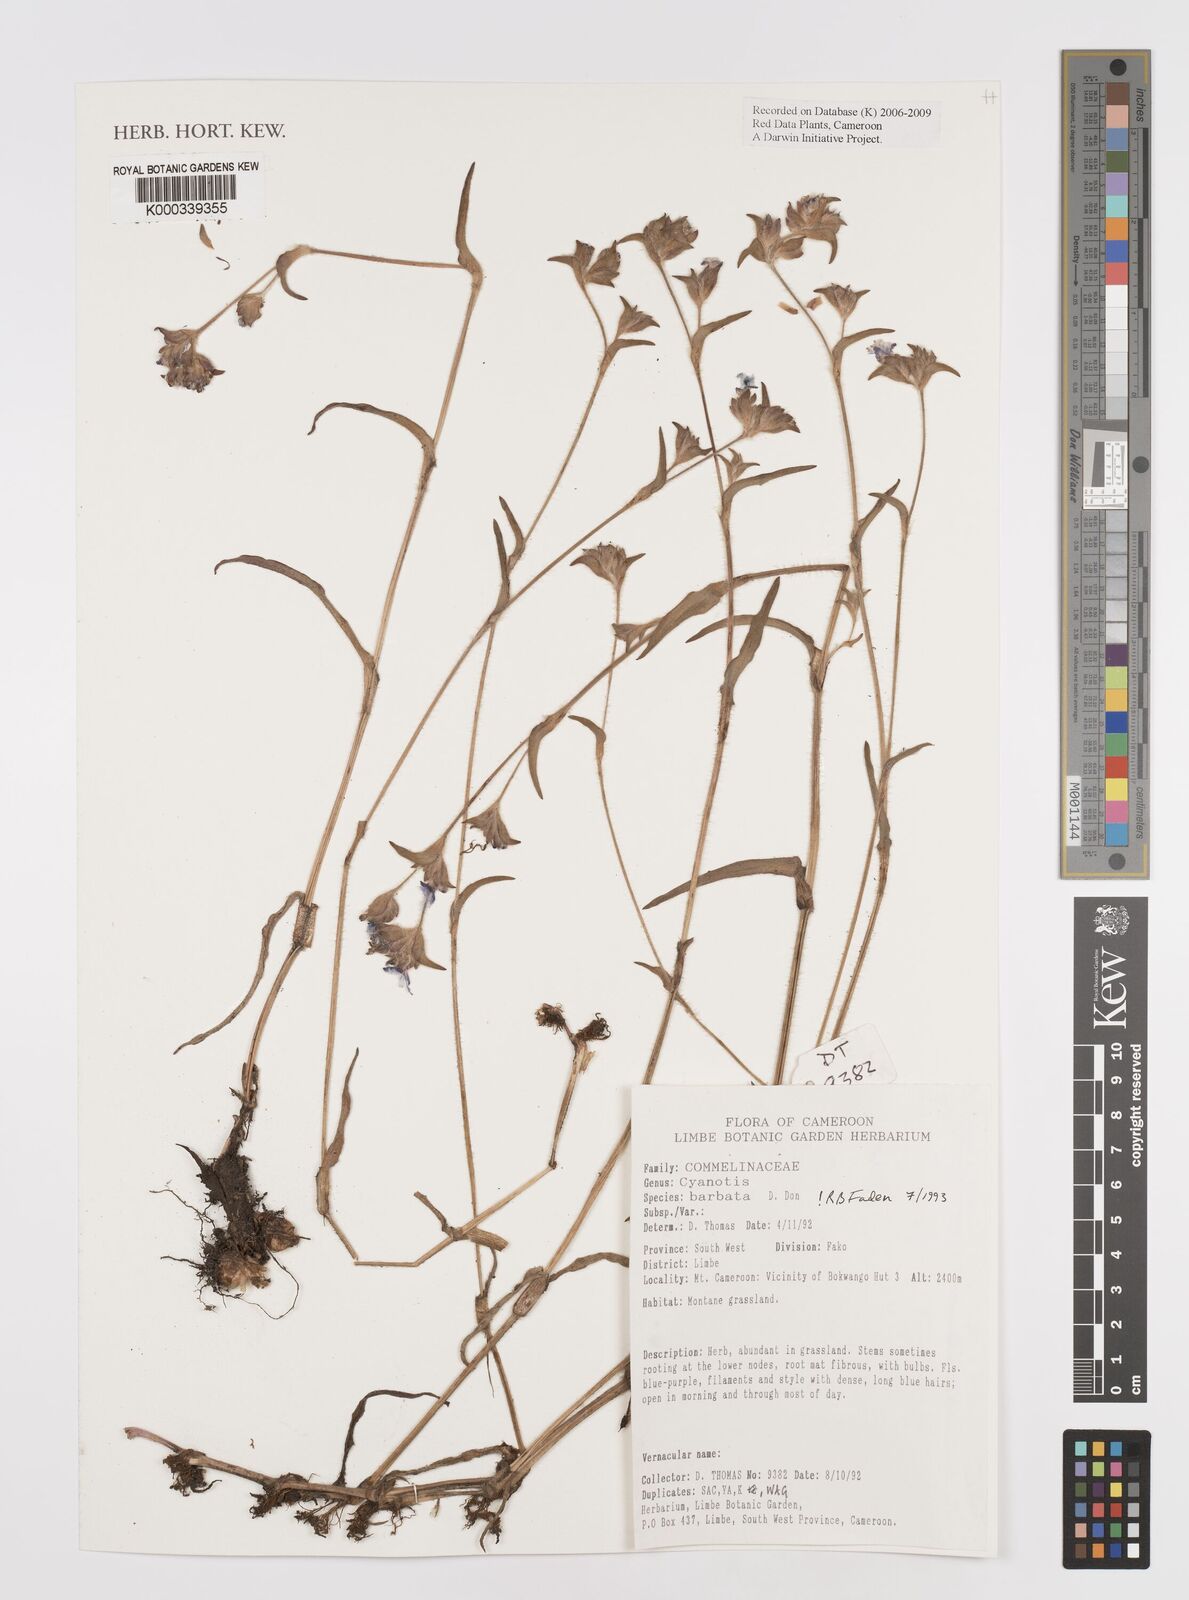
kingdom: Plantae
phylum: Tracheophyta
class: Liliopsida
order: Commelinales
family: Commelinaceae
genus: Cyanotis
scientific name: Cyanotis vaga
